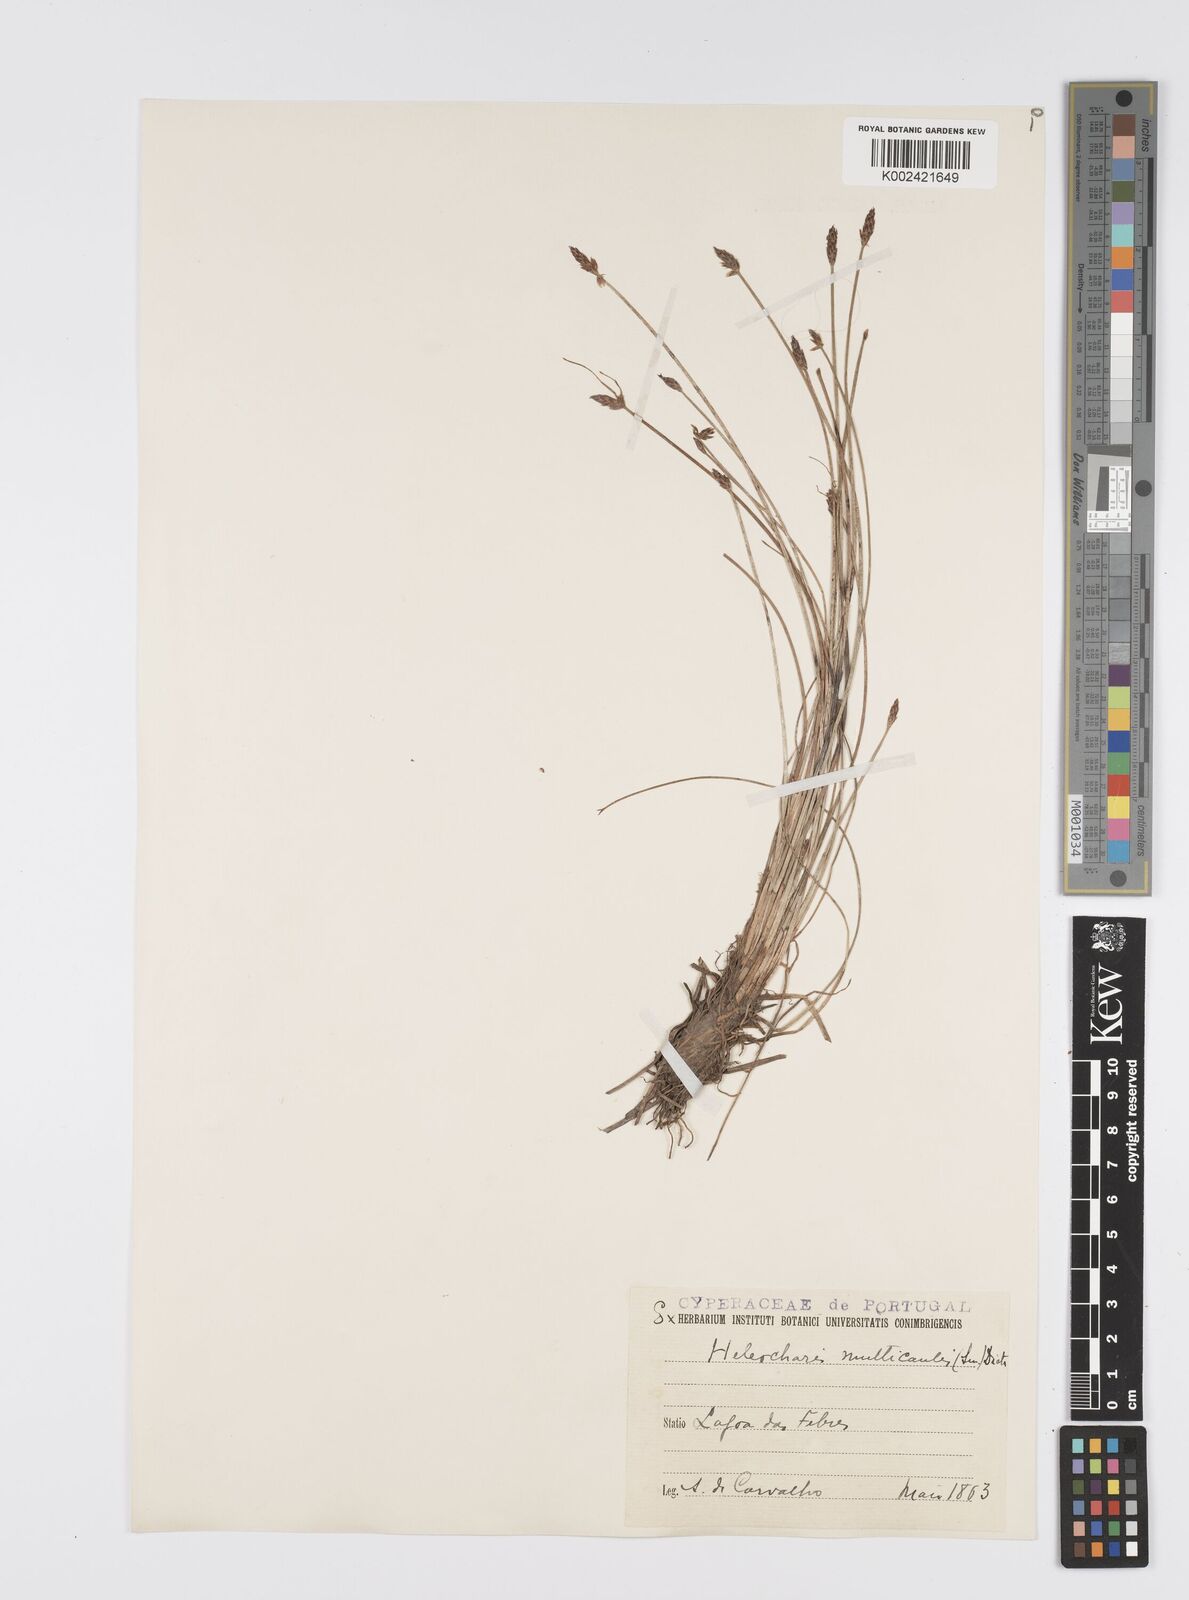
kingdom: Plantae
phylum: Tracheophyta
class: Liliopsida
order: Poales
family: Cyperaceae
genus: Eleocharis
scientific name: Eleocharis multicaulis
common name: Many-stalked spike-rush
